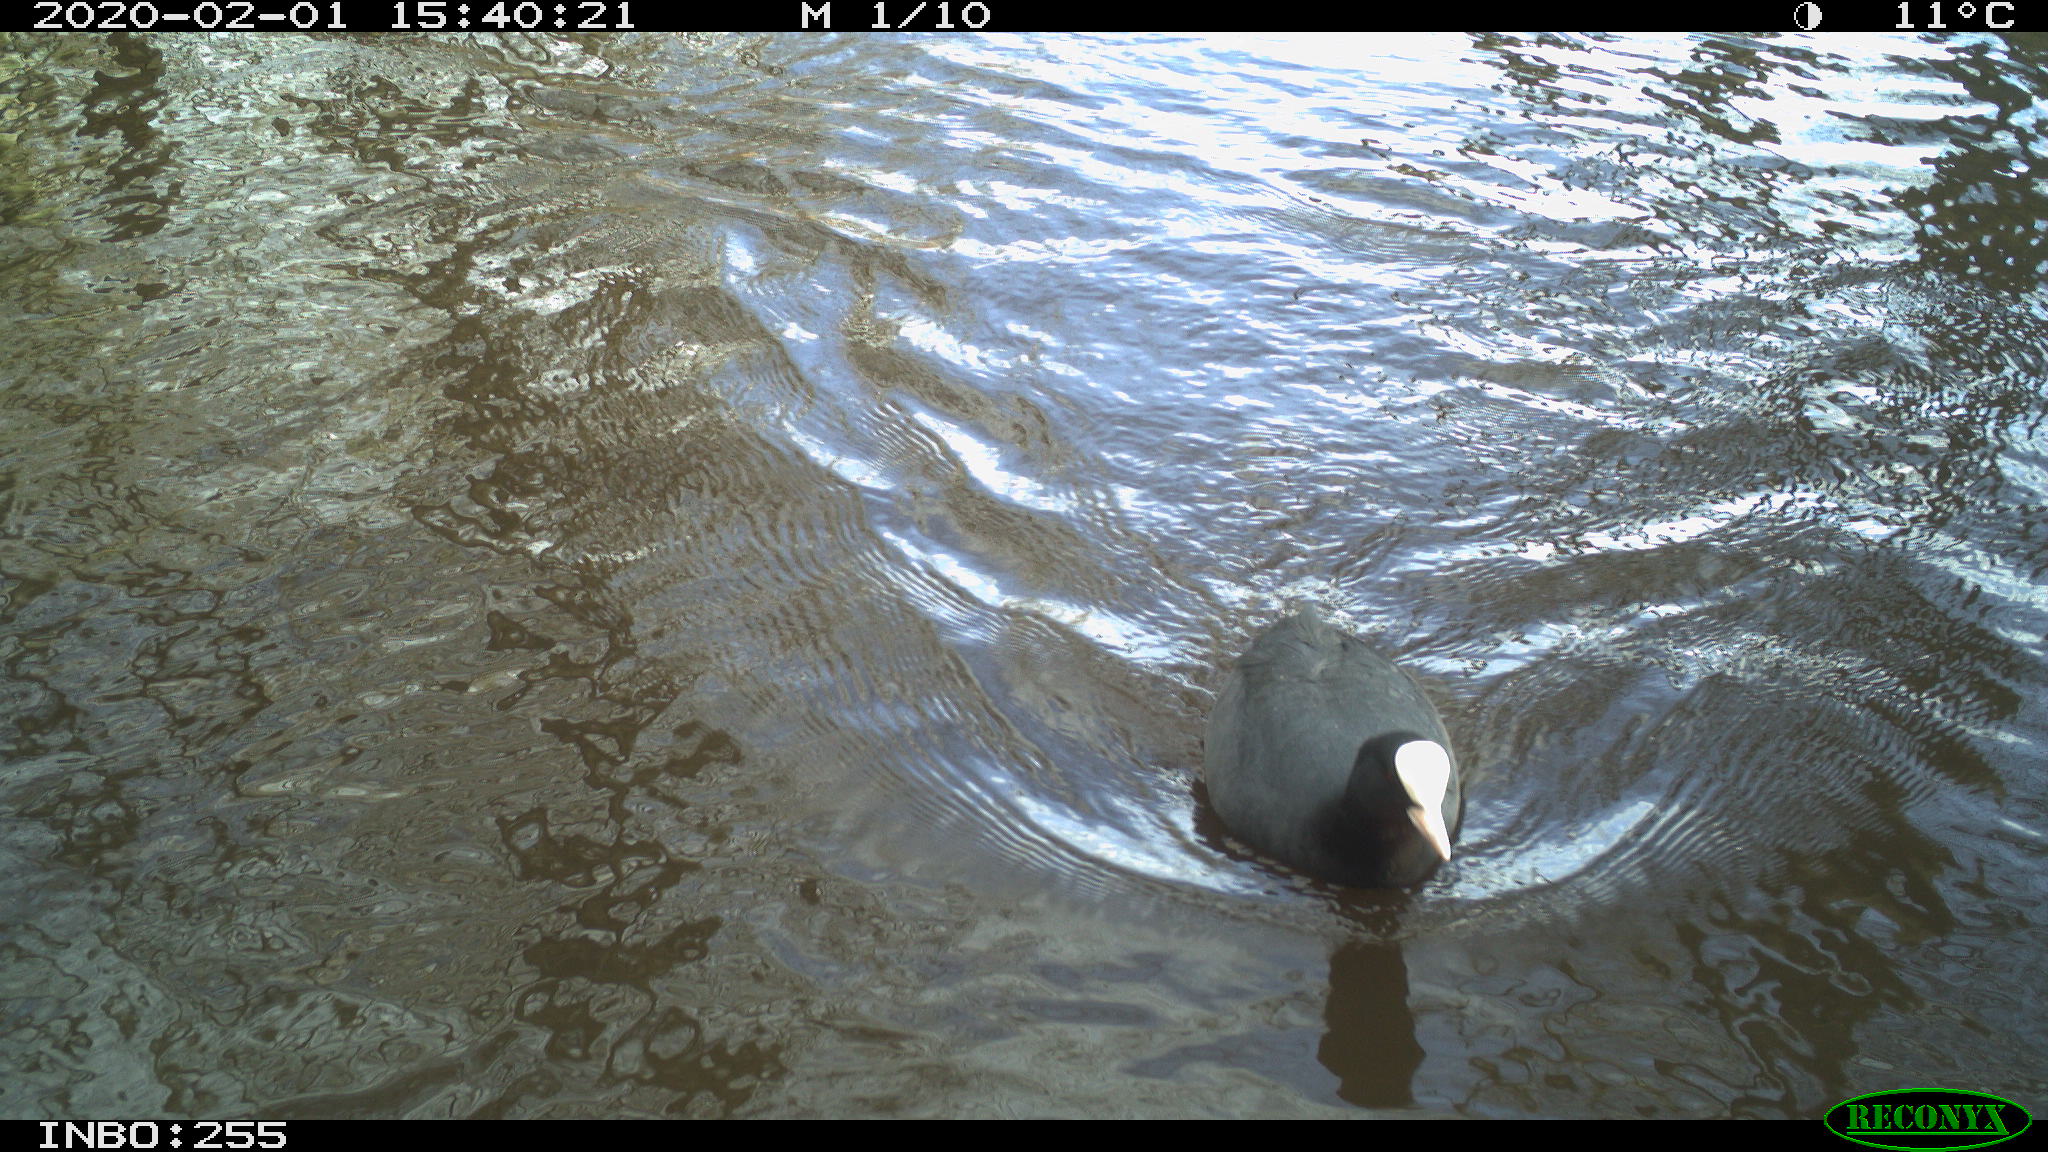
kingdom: Animalia
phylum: Chordata
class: Aves
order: Gruiformes
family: Rallidae
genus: Fulica
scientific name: Fulica atra
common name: Eurasian coot
